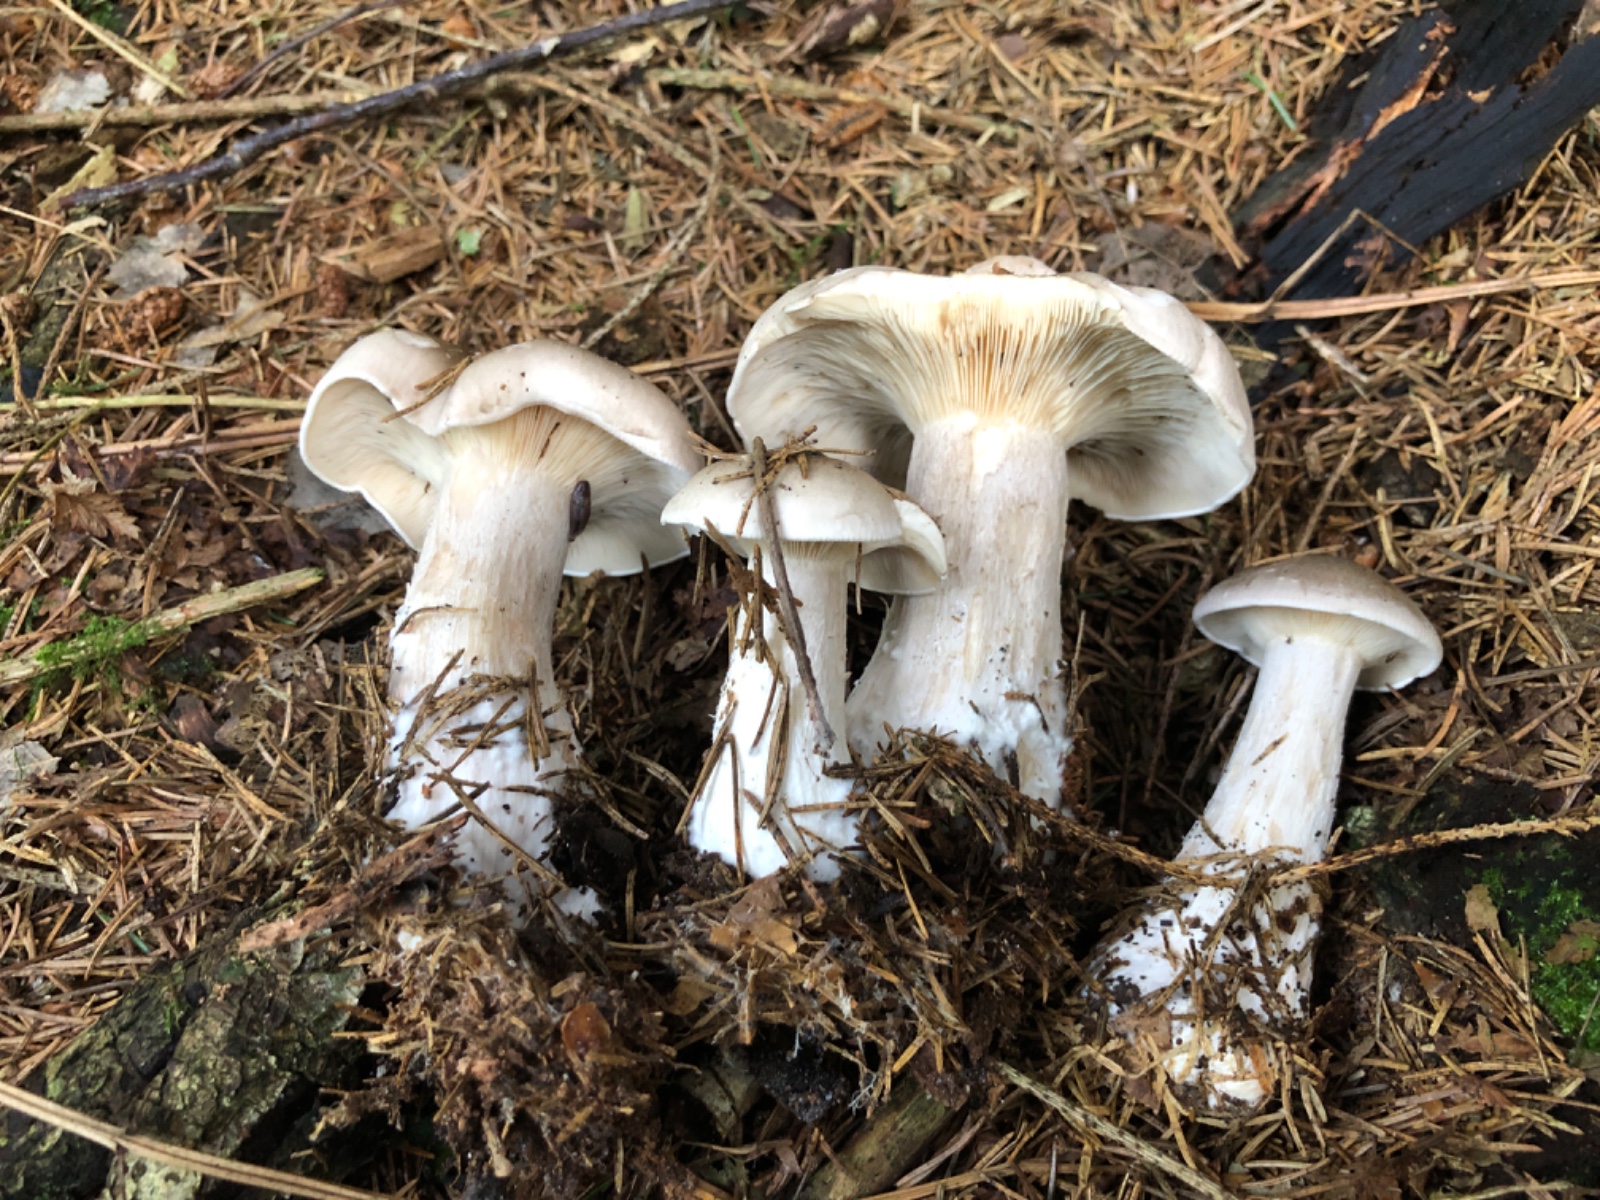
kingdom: Fungi
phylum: Basidiomycota
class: Agaricomycetes
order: Agaricales
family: Tricholomataceae
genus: Clitocybe
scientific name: Clitocybe nebularis
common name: tåge-tragthat
